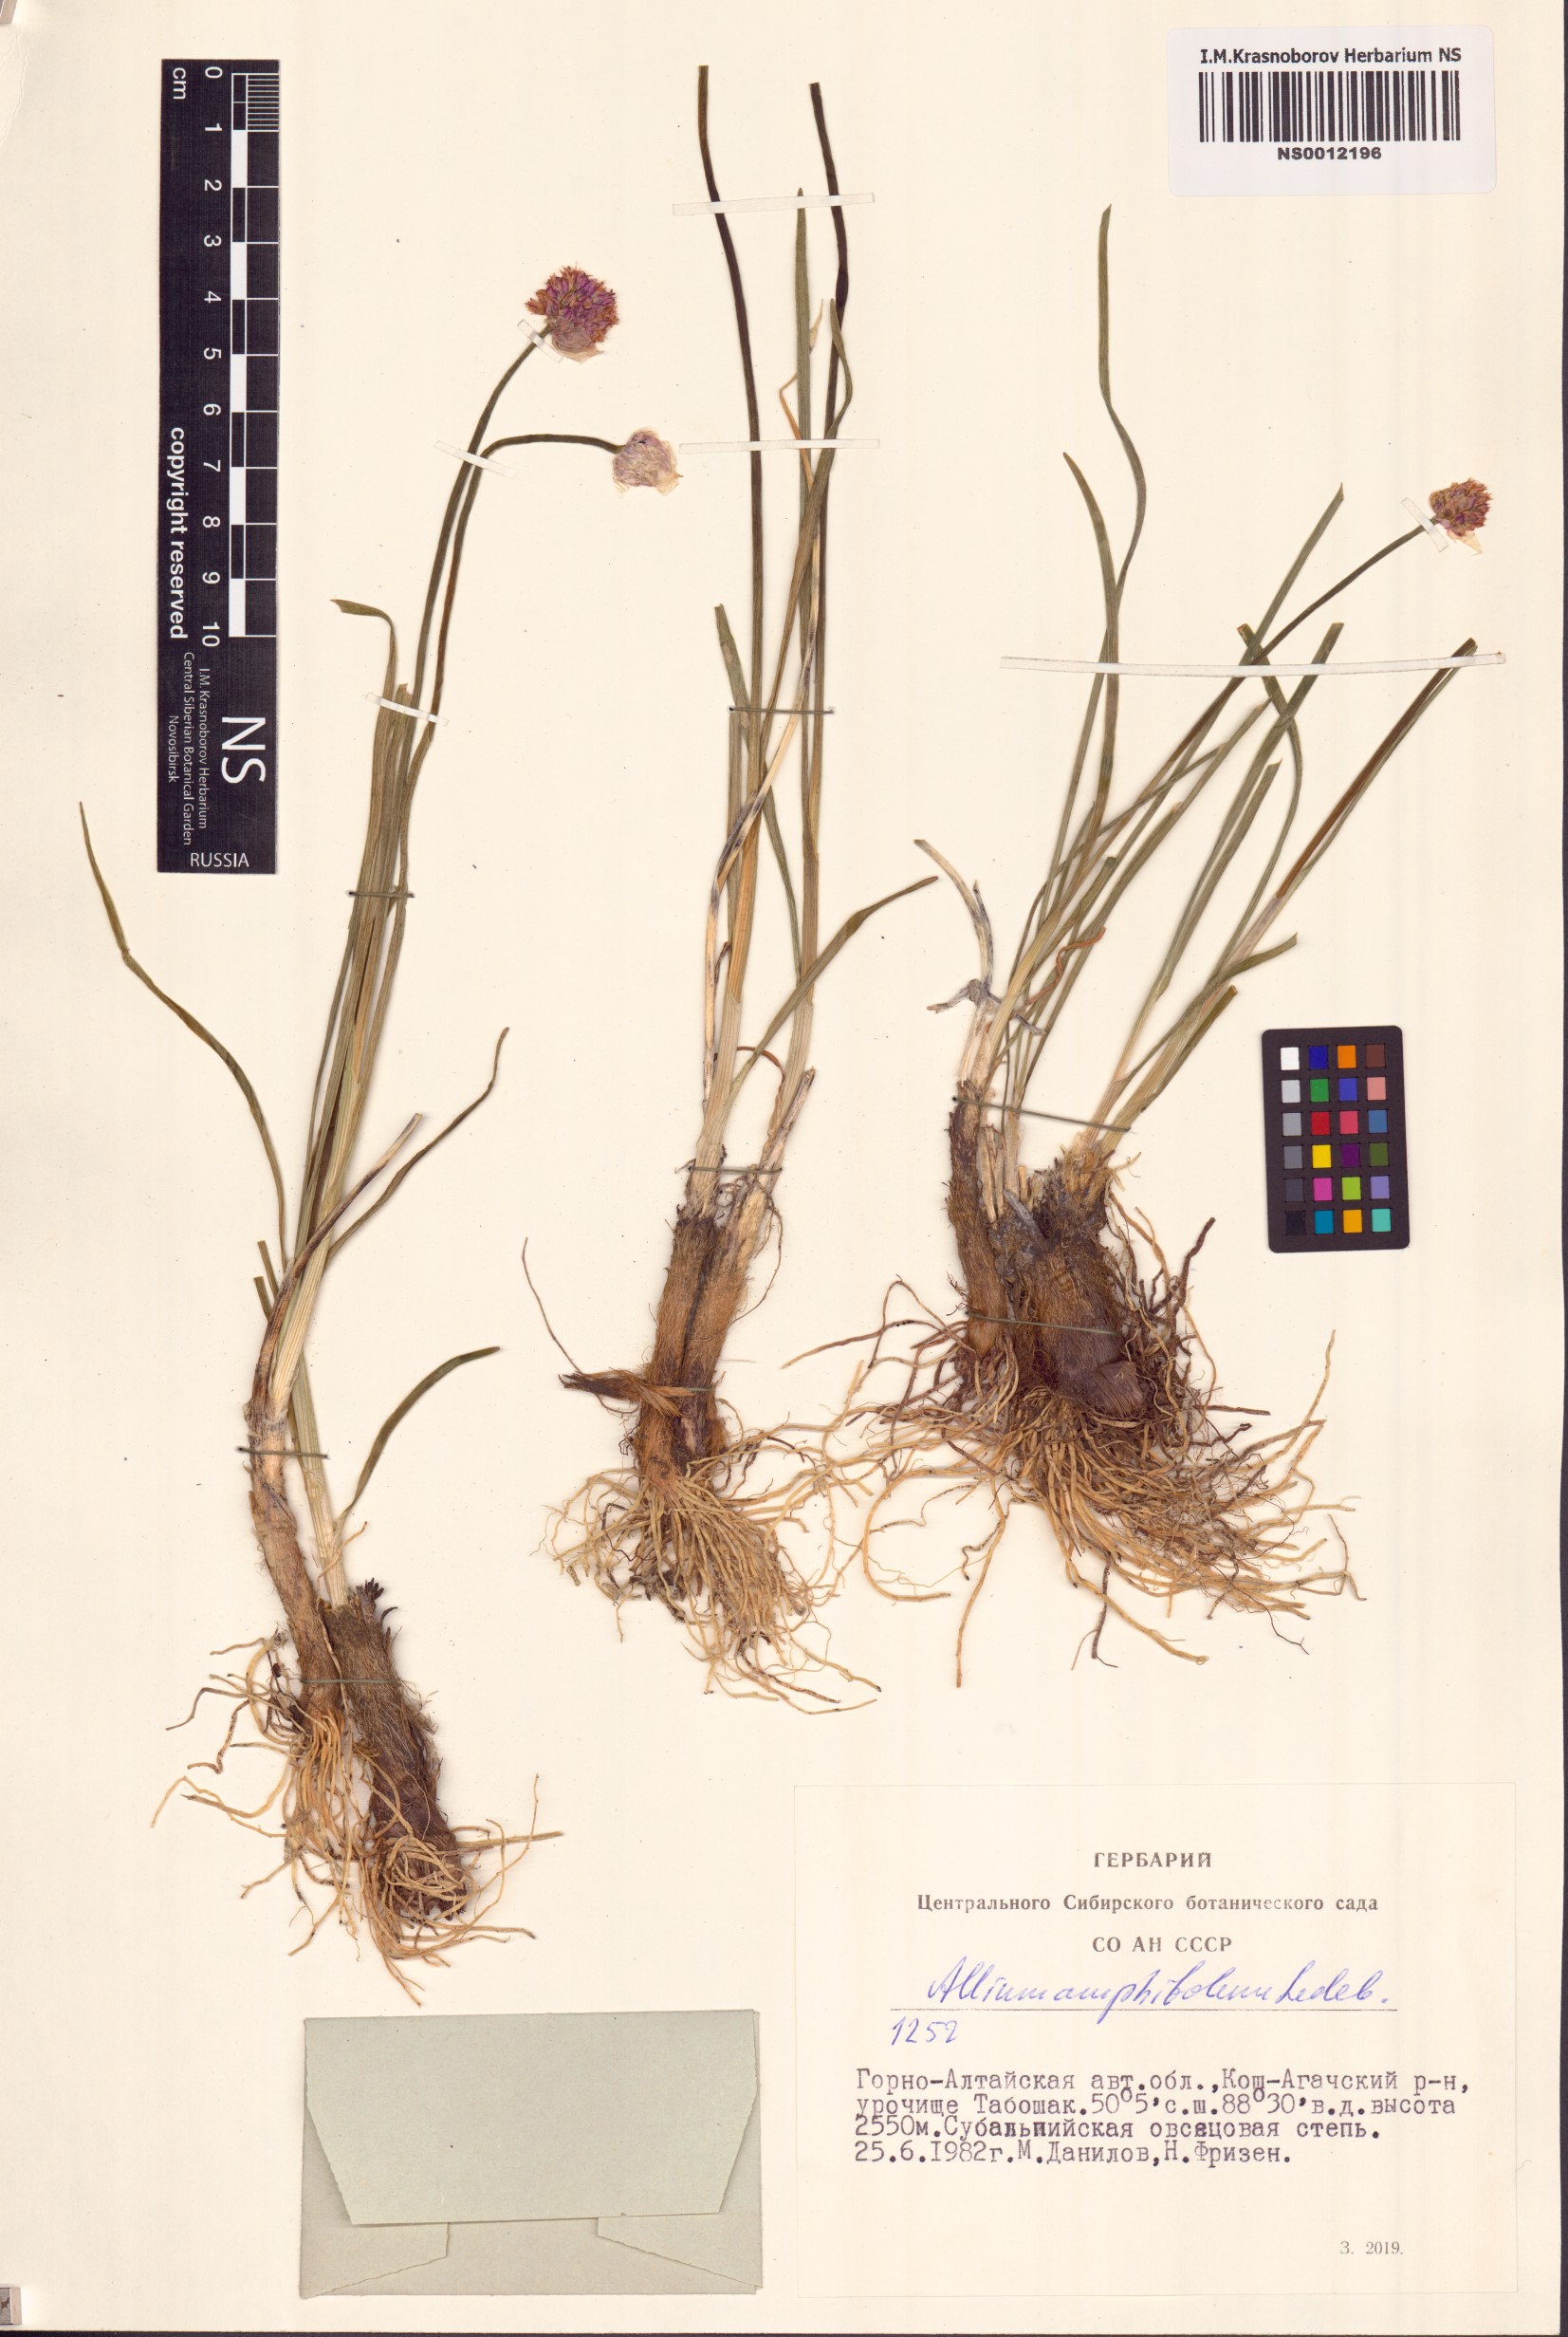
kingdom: Plantae
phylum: Tracheophyta
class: Liliopsida
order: Asparagales
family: Amaryllidaceae
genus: Allium
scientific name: Allium amphibolum
